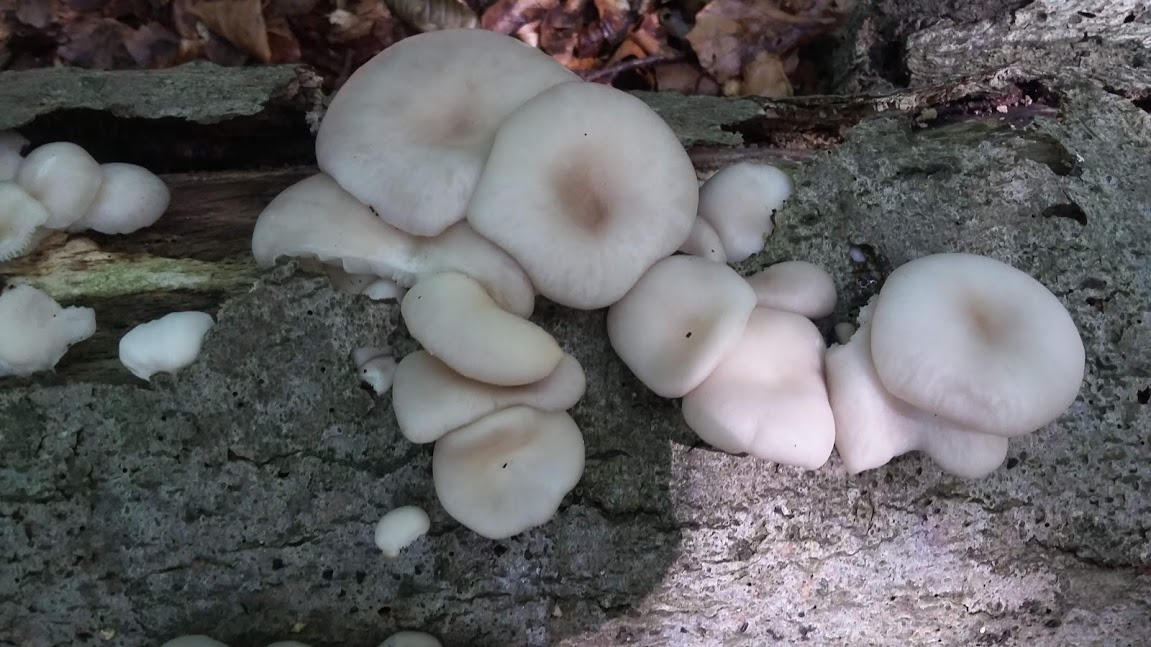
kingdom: Fungi
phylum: Basidiomycota
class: Agaricomycetes
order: Agaricales
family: Pleurotaceae
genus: Pleurotus
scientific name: Pleurotus pulmonarius
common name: sommer-østershat
